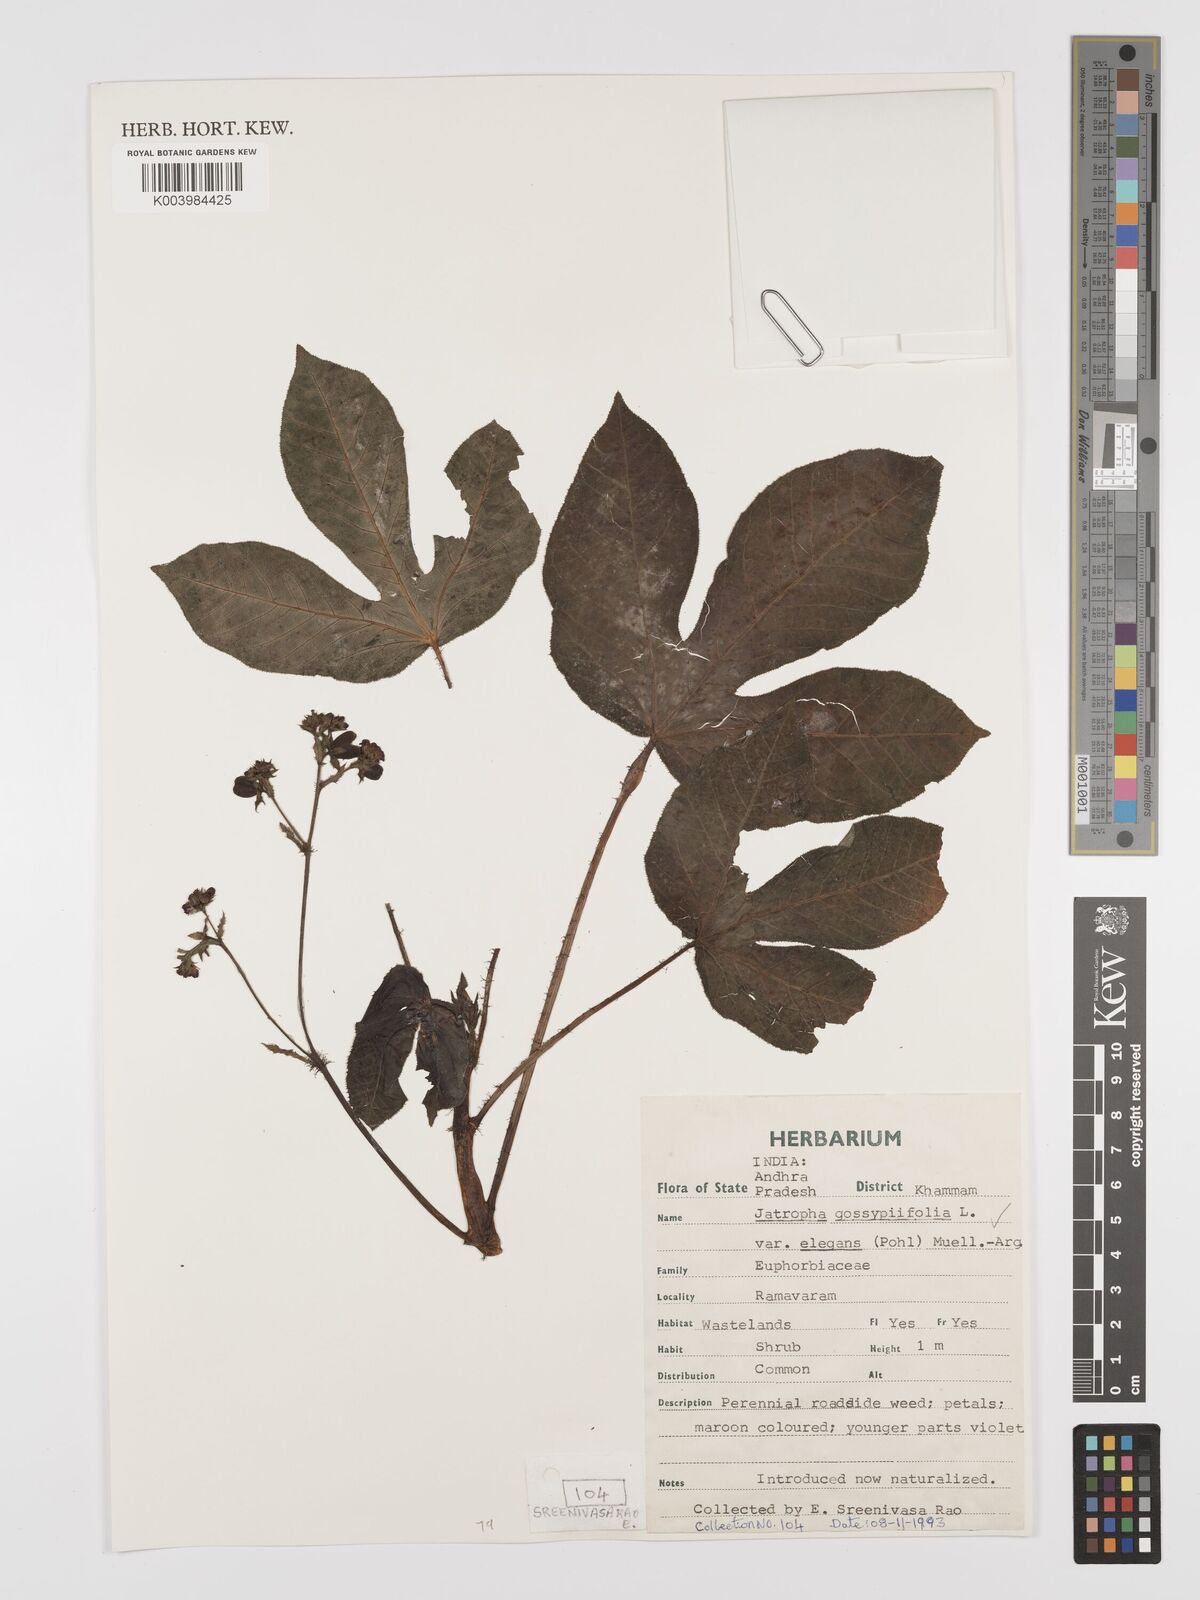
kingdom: Plantae
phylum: Tracheophyta
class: Magnoliopsida
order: Malpighiales
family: Euphorbiaceae
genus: Jatropha
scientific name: Jatropha gossypiifolia
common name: Bellyache bush
